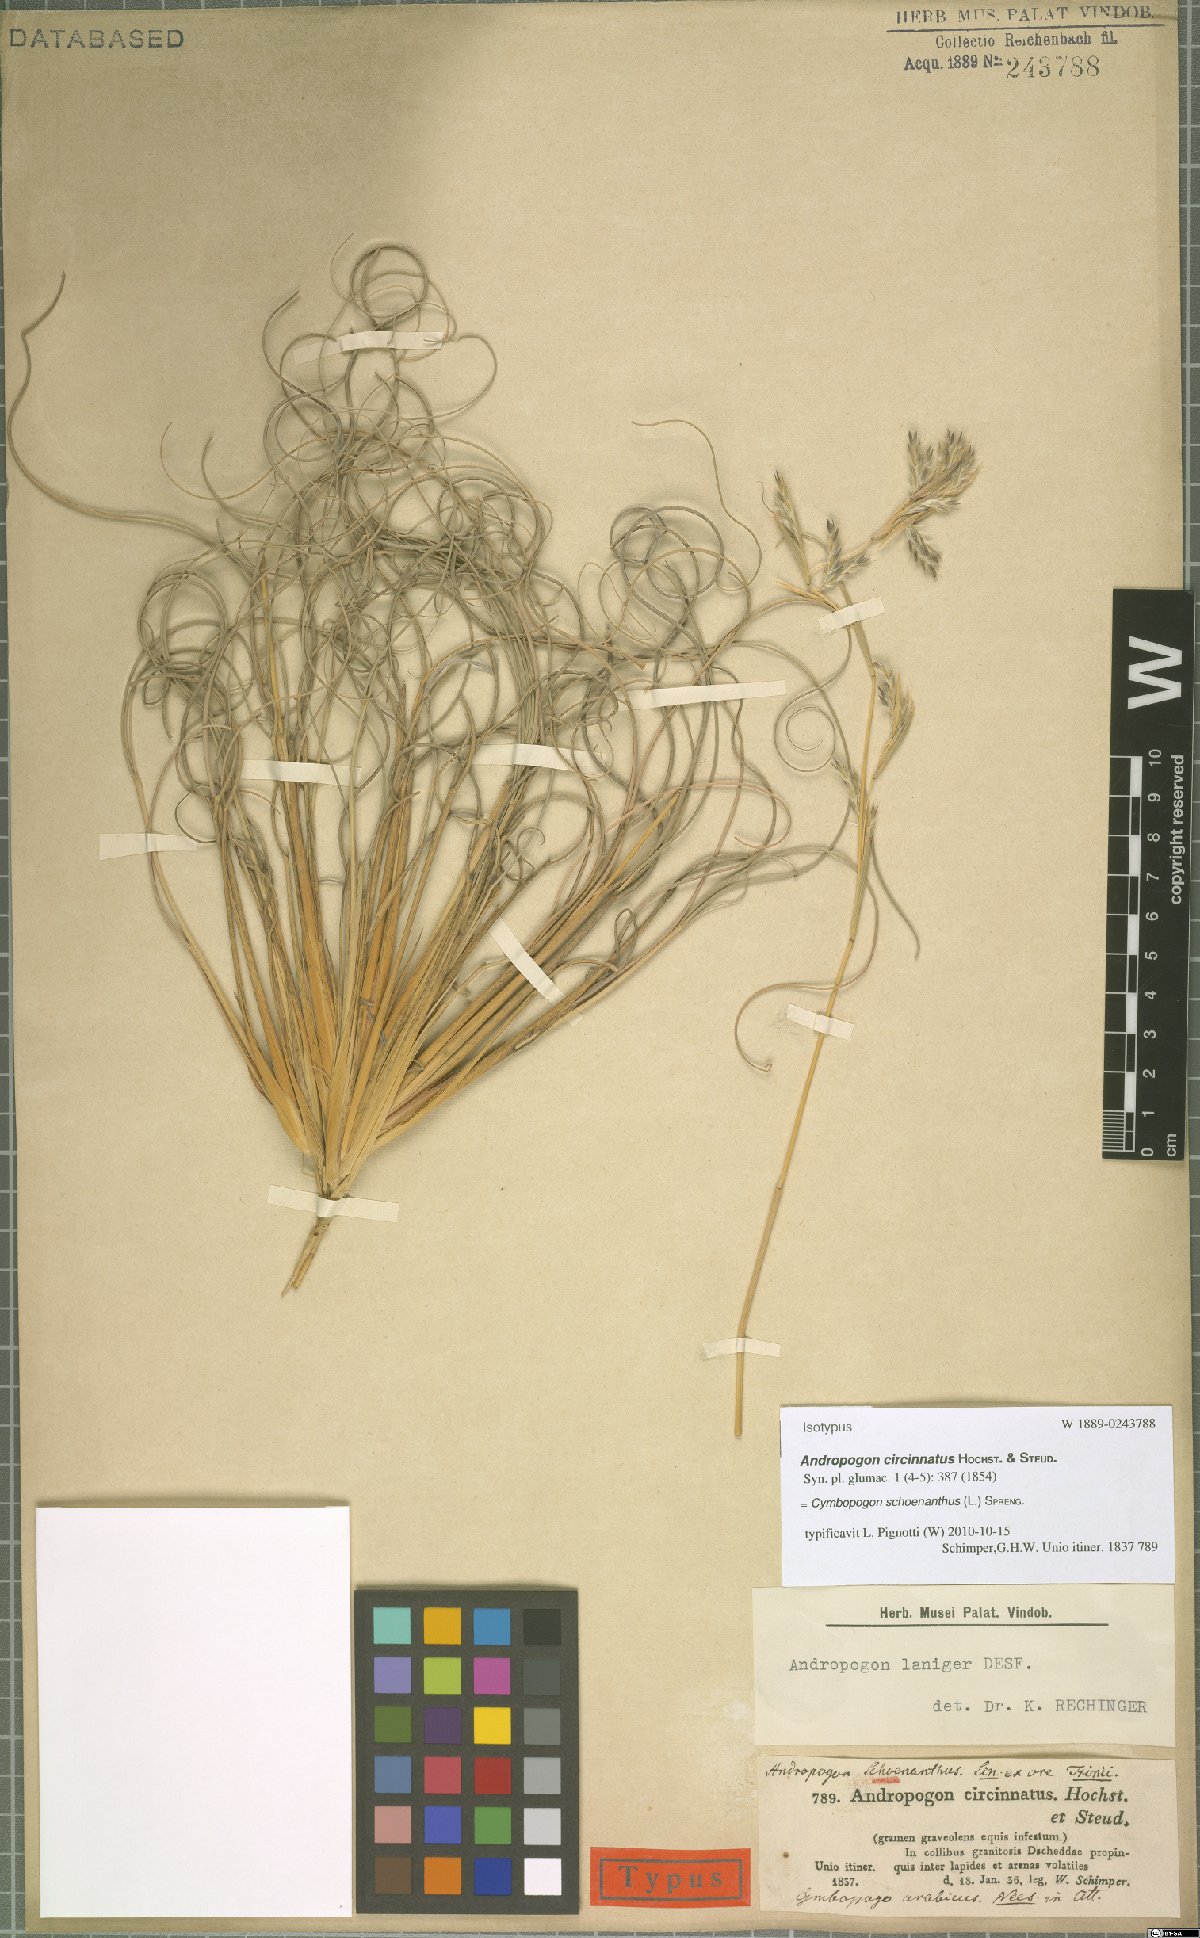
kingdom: Plantae
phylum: Tracheophyta
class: Liliopsida
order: Poales
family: Poaceae
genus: Cymbopogon
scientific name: Cymbopogon schoenanthus
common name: Geranium grass
